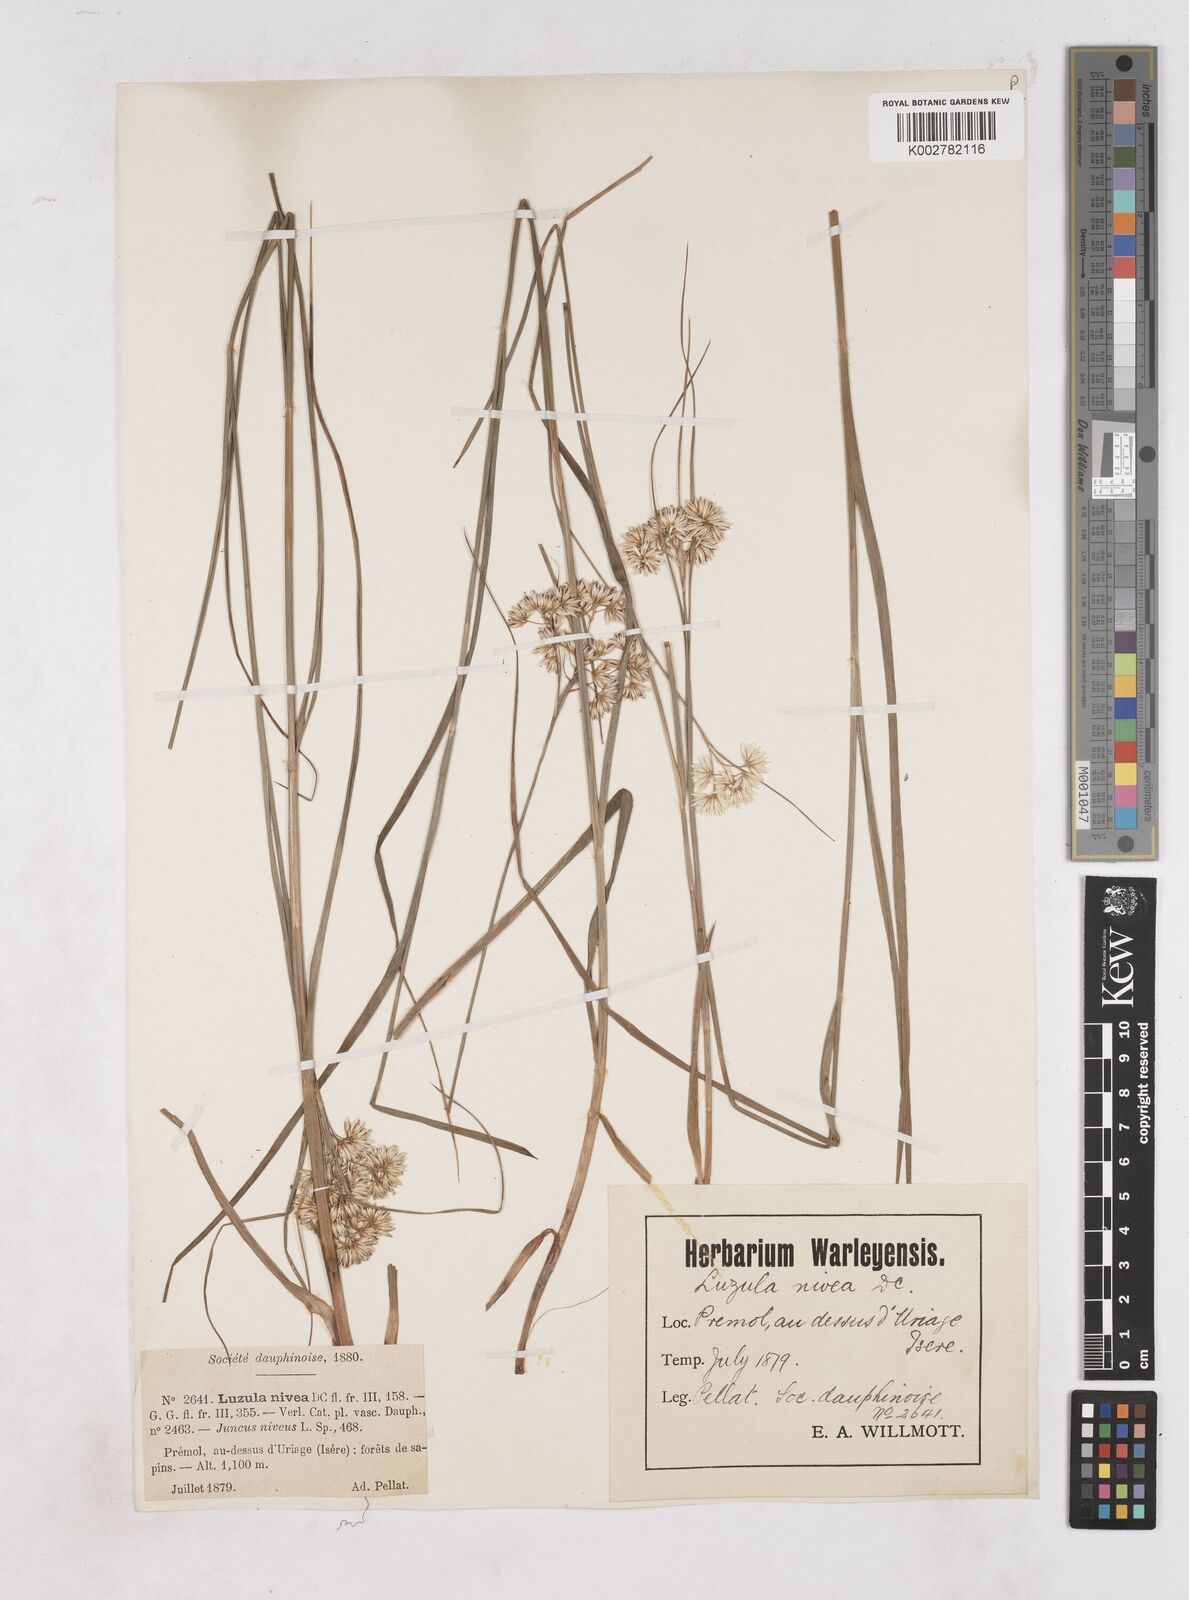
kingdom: Plantae
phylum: Tracheophyta
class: Liliopsida
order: Poales
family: Juncaceae
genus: Luzula
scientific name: Luzula nivea
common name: Snow-white wood-rush
